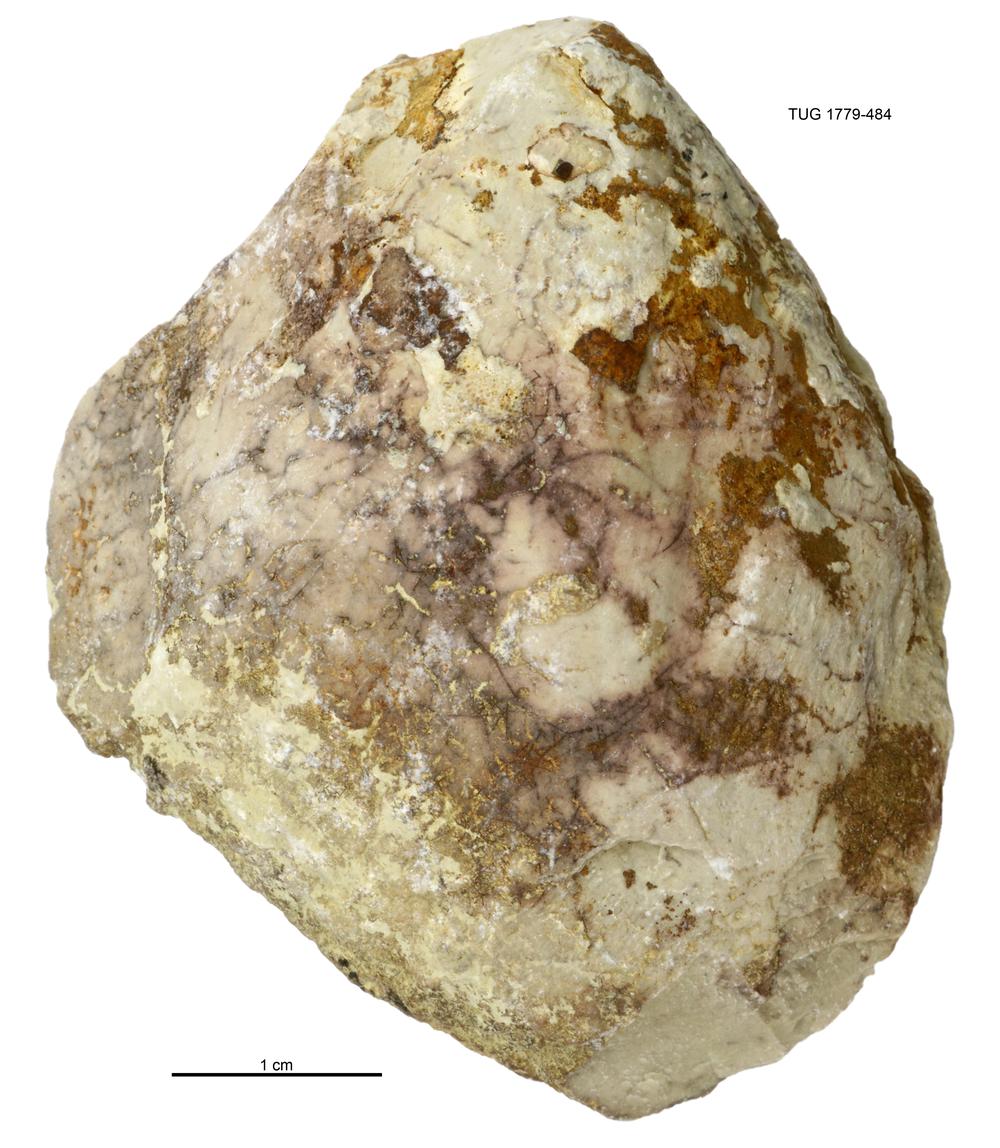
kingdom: Animalia
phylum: Mollusca
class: Bivalvia
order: Modiomorphida
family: Modiomorphidae
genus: Modiolopsis
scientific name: Modiolopsis
